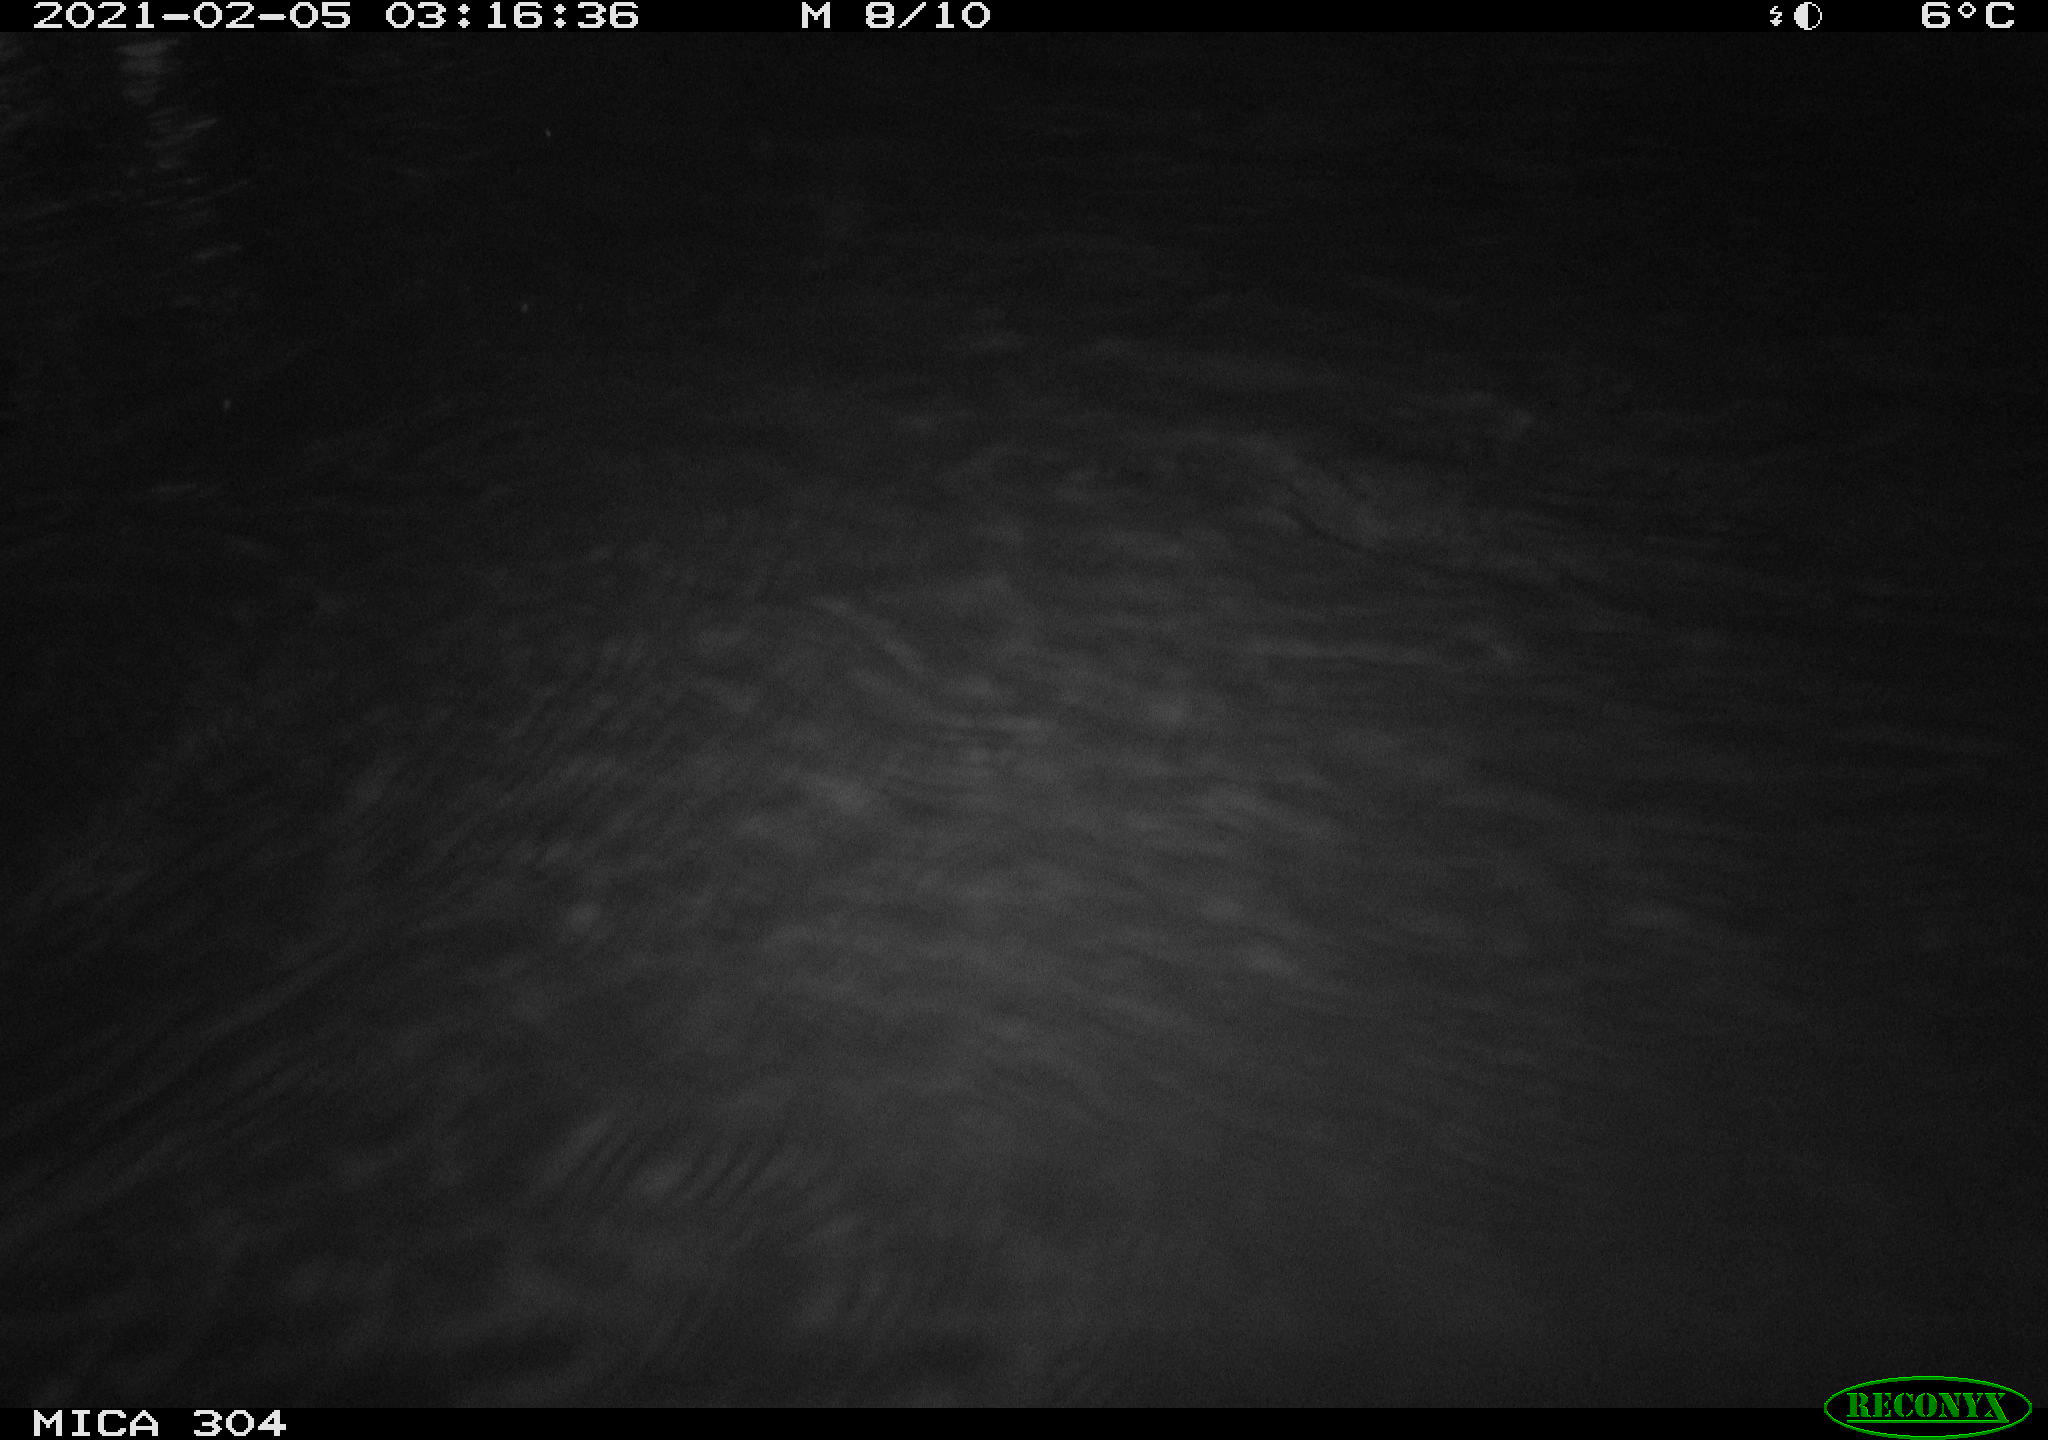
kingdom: Animalia
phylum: Chordata
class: Mammalia
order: Rodentia
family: Cricetidae
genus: Ondatra
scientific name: Ondatra zibethicus
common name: Muskrat
